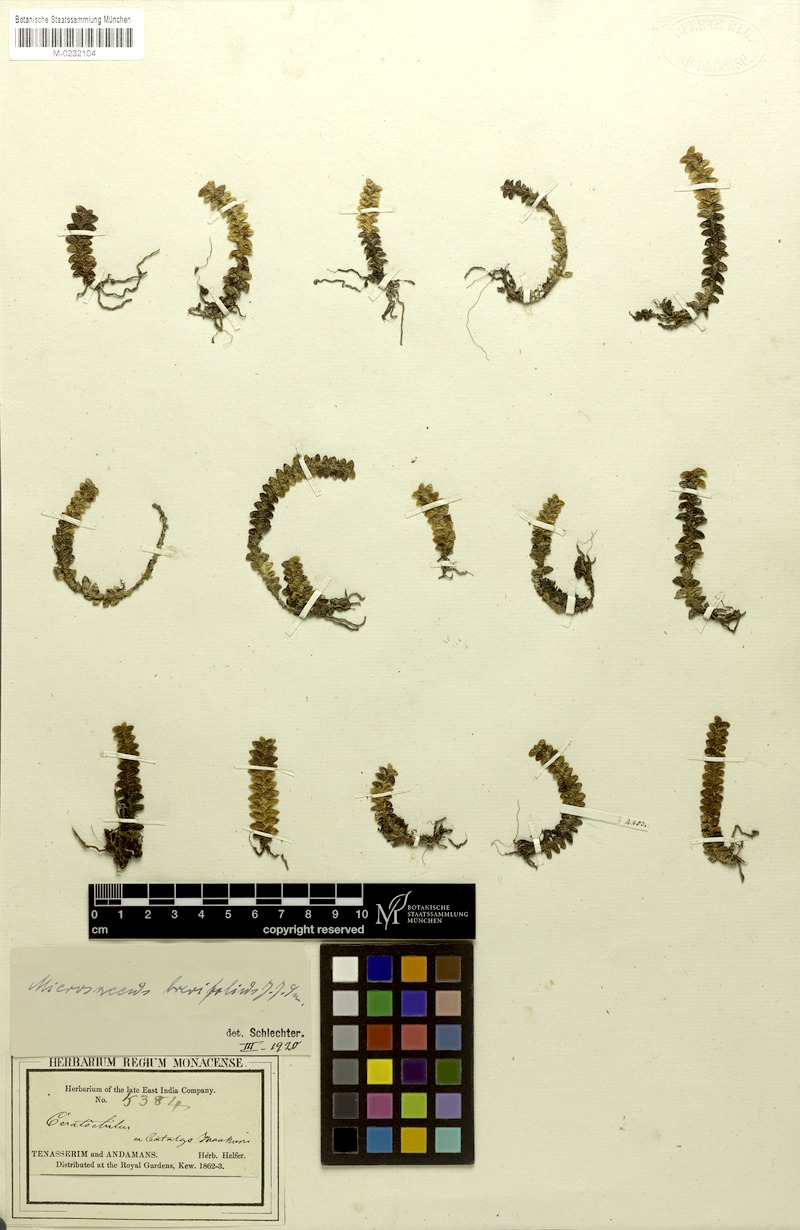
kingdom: Plantae
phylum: Tracheophyta
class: Liliopsida
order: Asparagales
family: Orchidaceae
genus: Microsaccus
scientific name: Microsaccus griffithii
